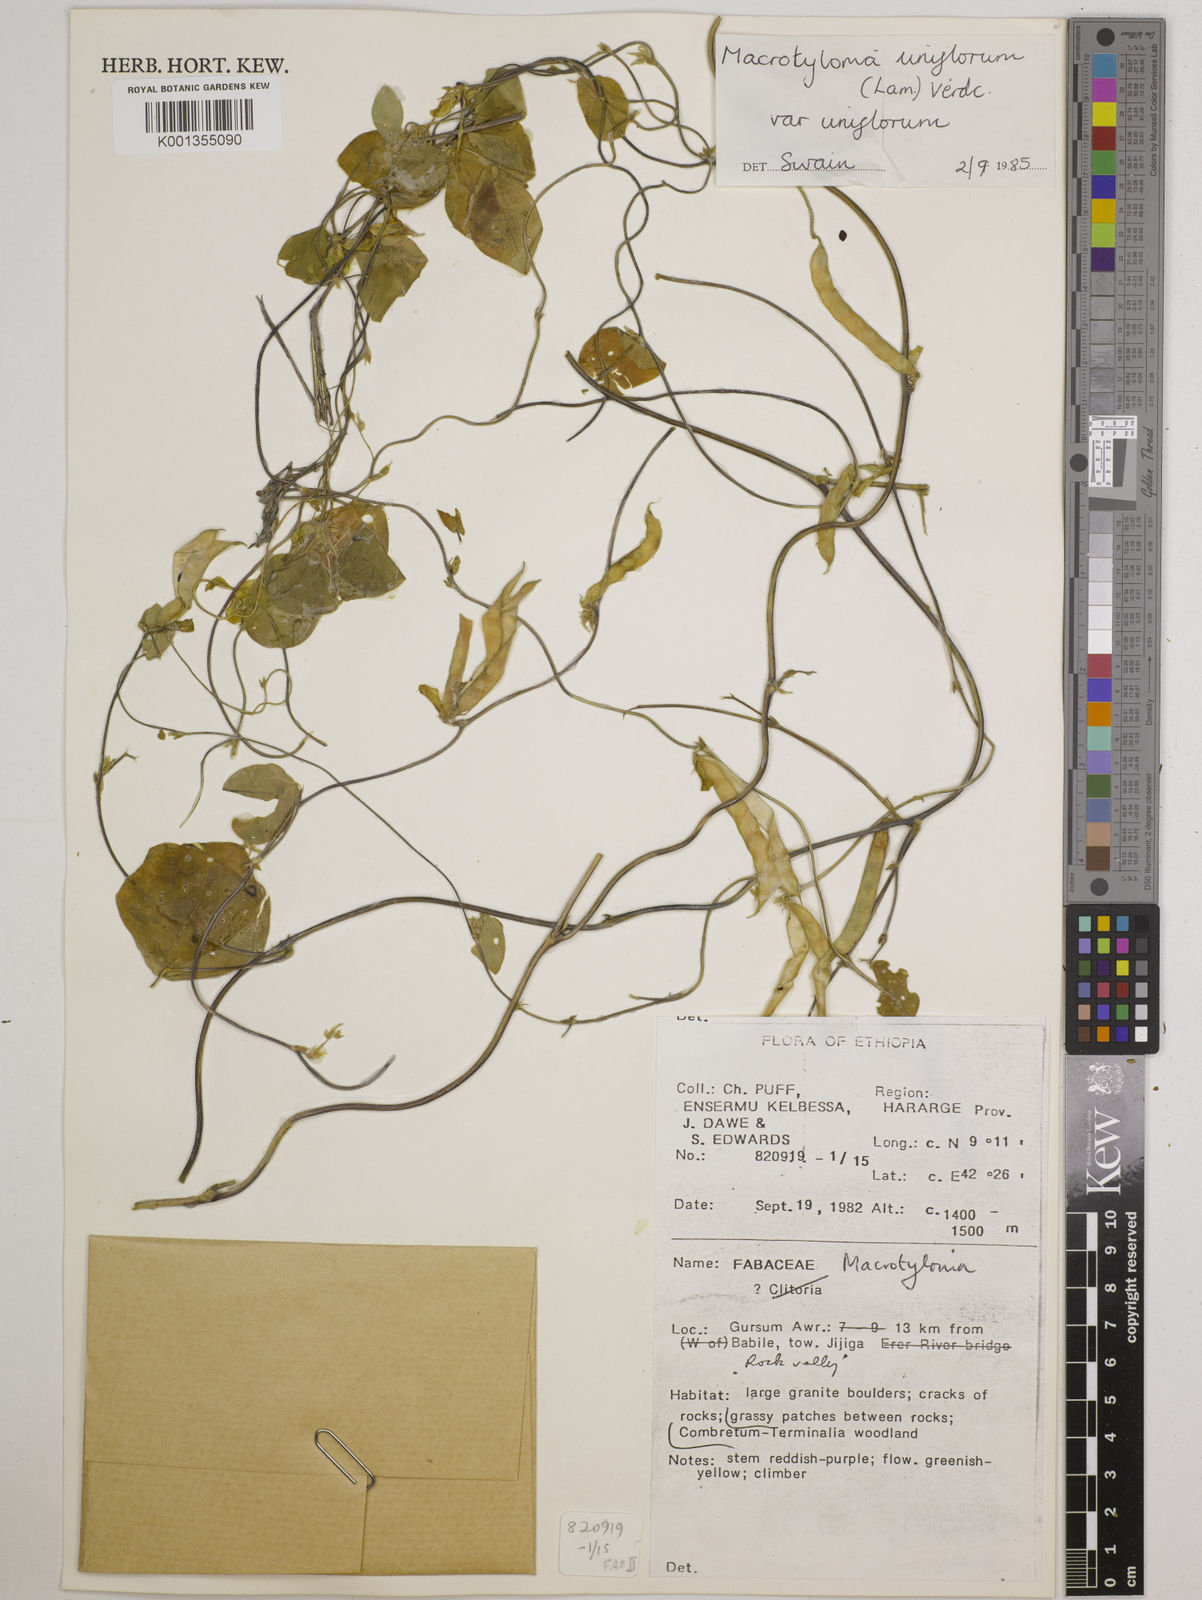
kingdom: Plantae
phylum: Tracheophyta
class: Magnoliopsida
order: Fabales
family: Fabaceae
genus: Macrotyloma
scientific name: Macrotyloma uniflorum
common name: Horse gram
